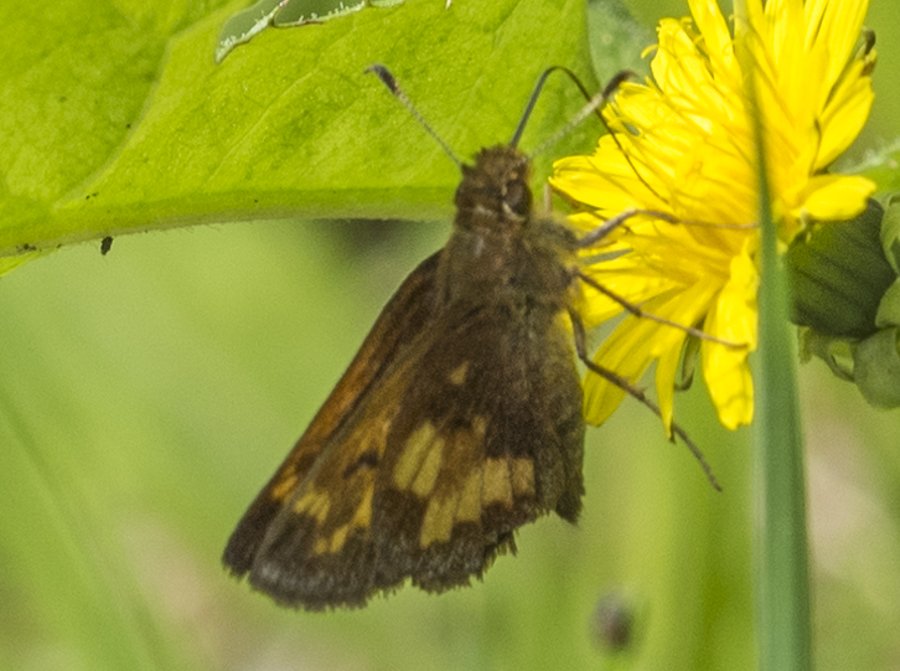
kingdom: Animalia
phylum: Arthropoda
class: Insecta
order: Lepidoptera
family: Hesperiidae
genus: Lon
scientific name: Lon hobomok
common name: Hobomok Skipper
